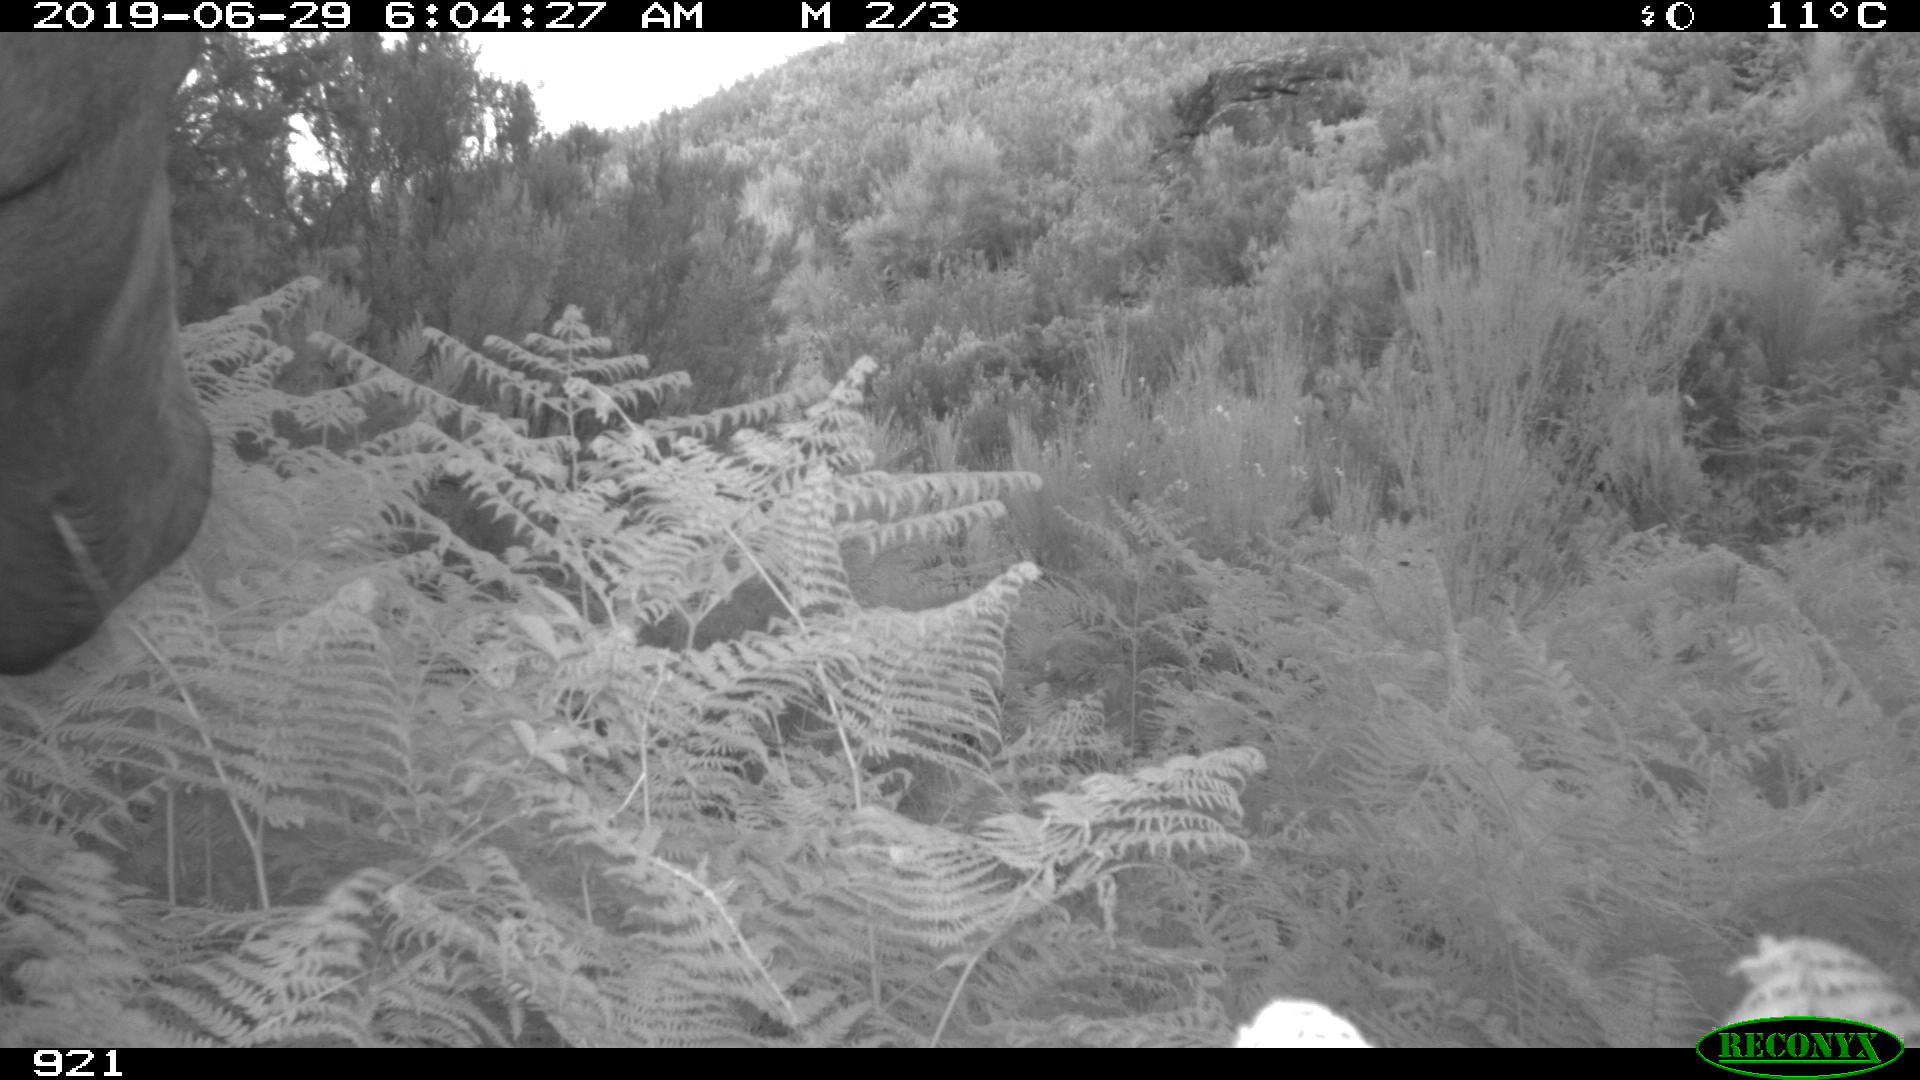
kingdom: Animalia
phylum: Chordata
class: Mammalia
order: Perissodactyla
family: Equidae
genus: Equus
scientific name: Equus caballus
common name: Horse
